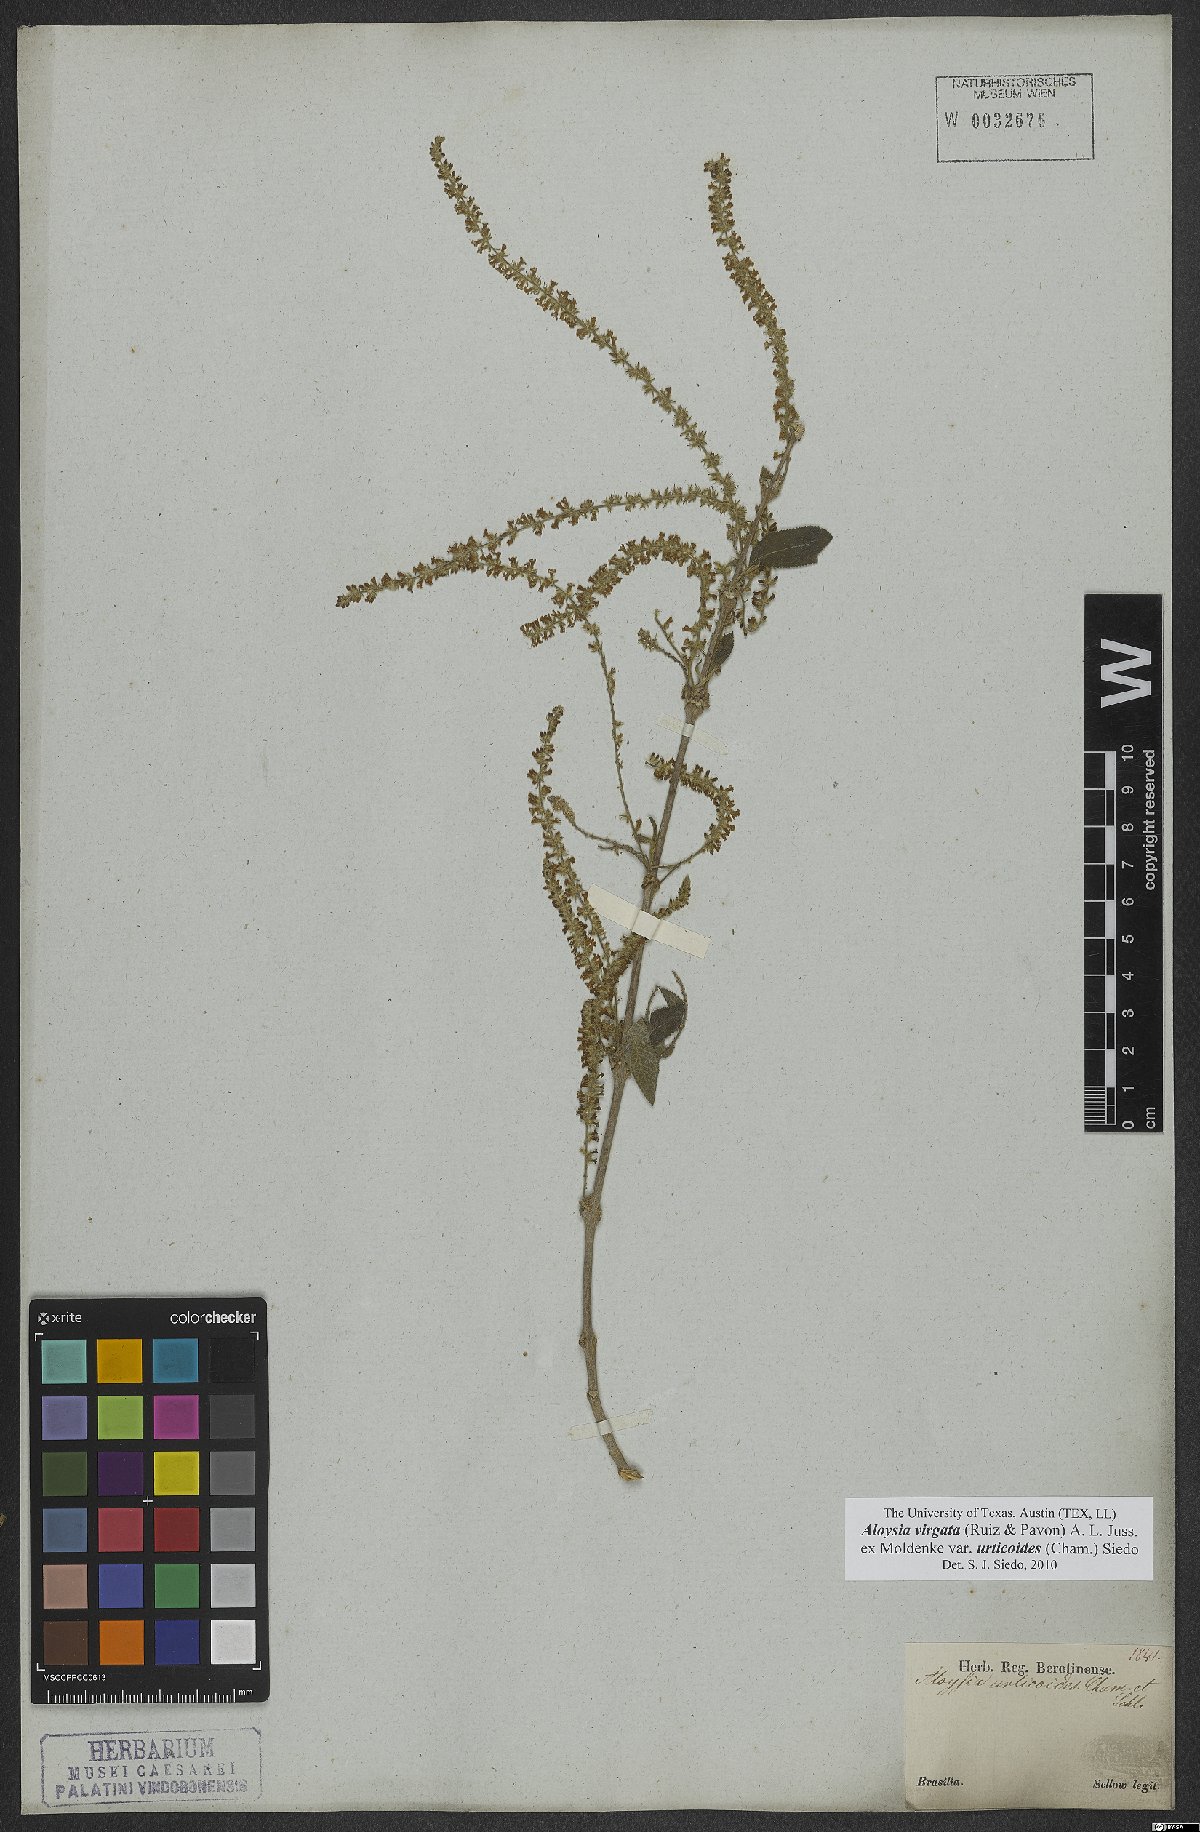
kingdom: Plantae
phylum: Tracheophyta
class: Magnoliopsida
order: Lamiales
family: Verbenaceae
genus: Aloysia
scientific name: Aloysia virgata
